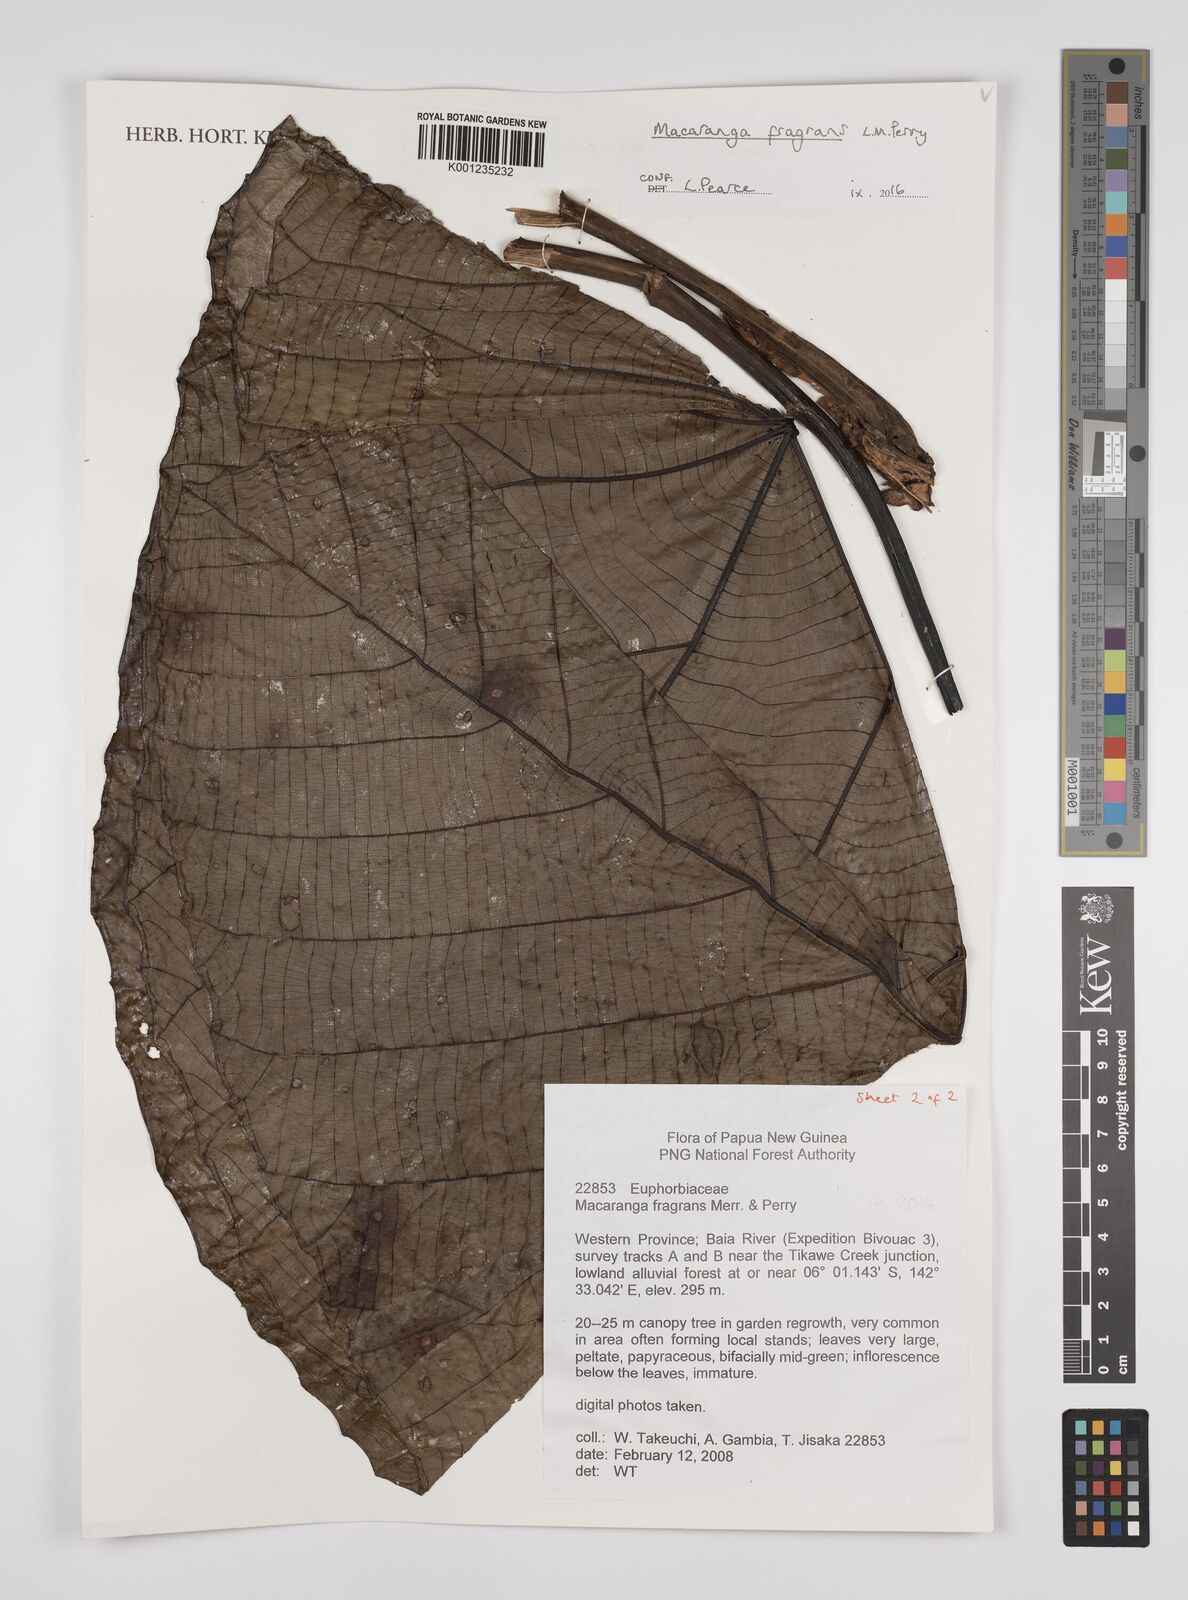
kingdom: Plantae
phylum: Tracheophyta
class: Magnoliopsida
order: Malpighiales
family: Euphorbiaceae
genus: Macaranga
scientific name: Macaranga fragrans
